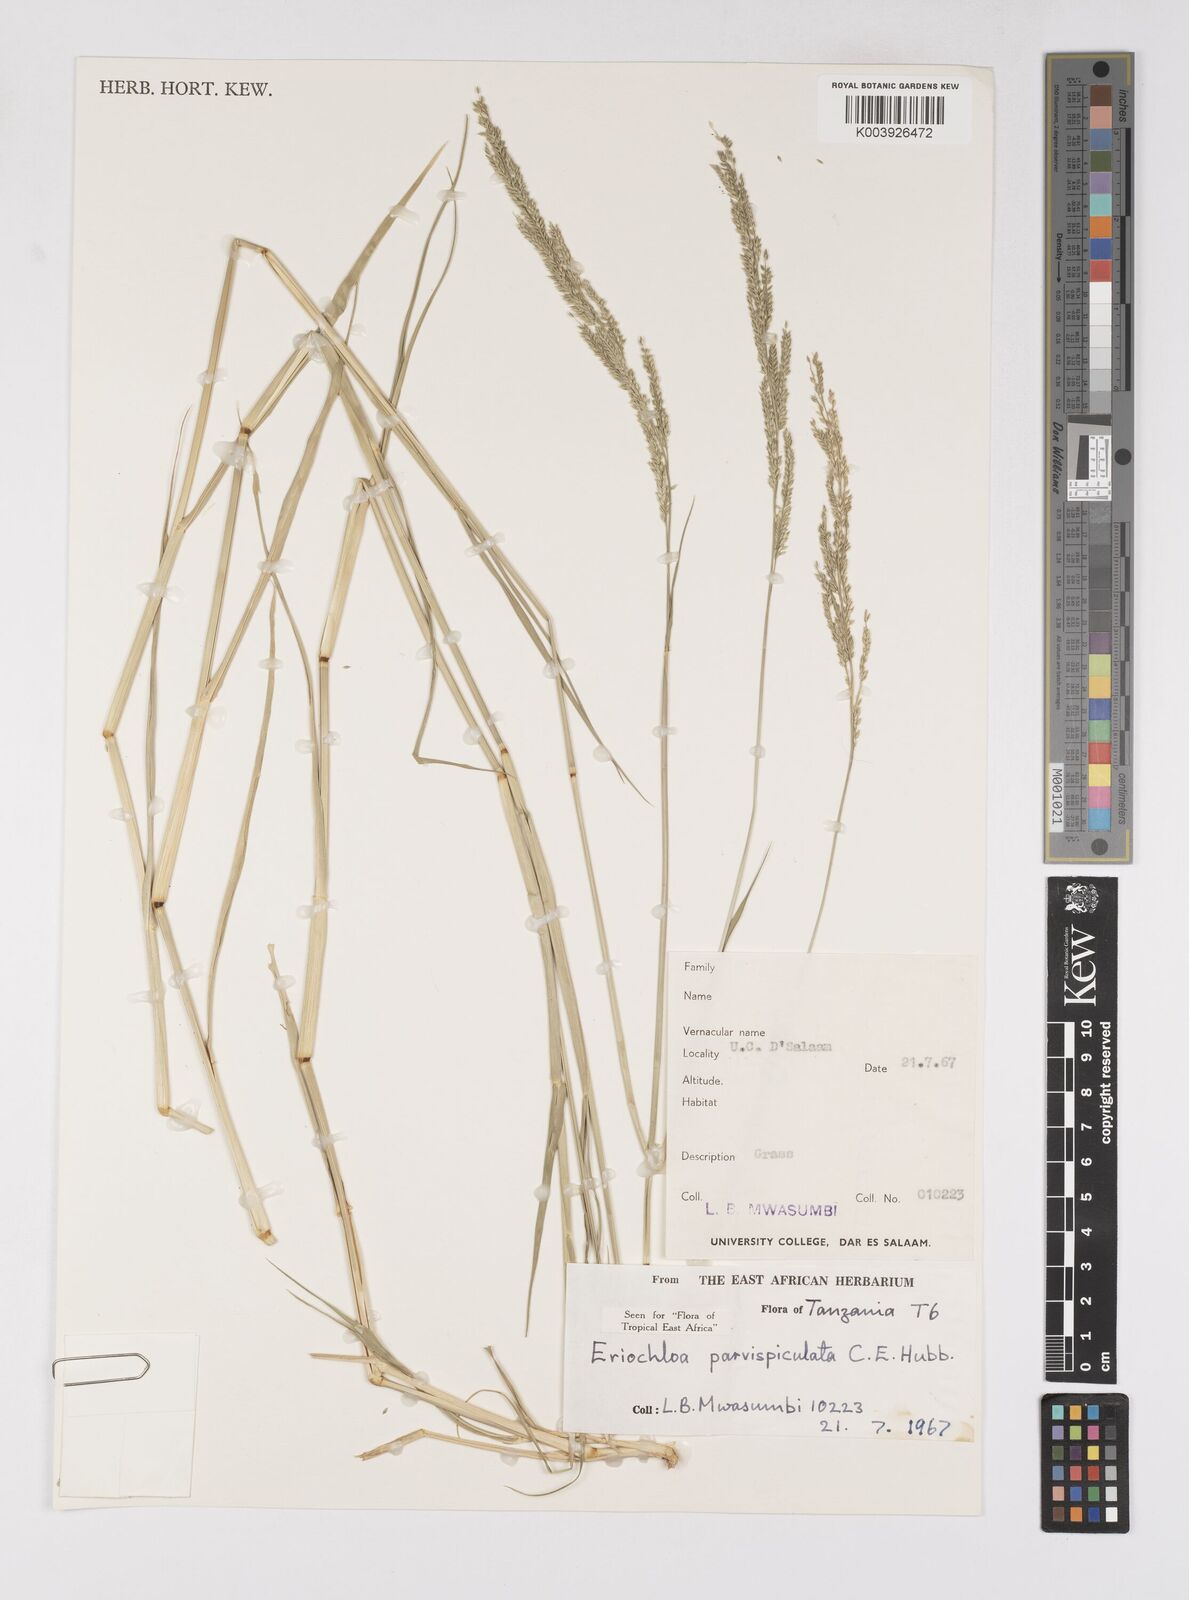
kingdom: Plantae
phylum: Tracheophyta
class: Liliopsida
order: Poales
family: Poaceae
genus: Eriochloa
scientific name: Eriochloa parvispiculata
